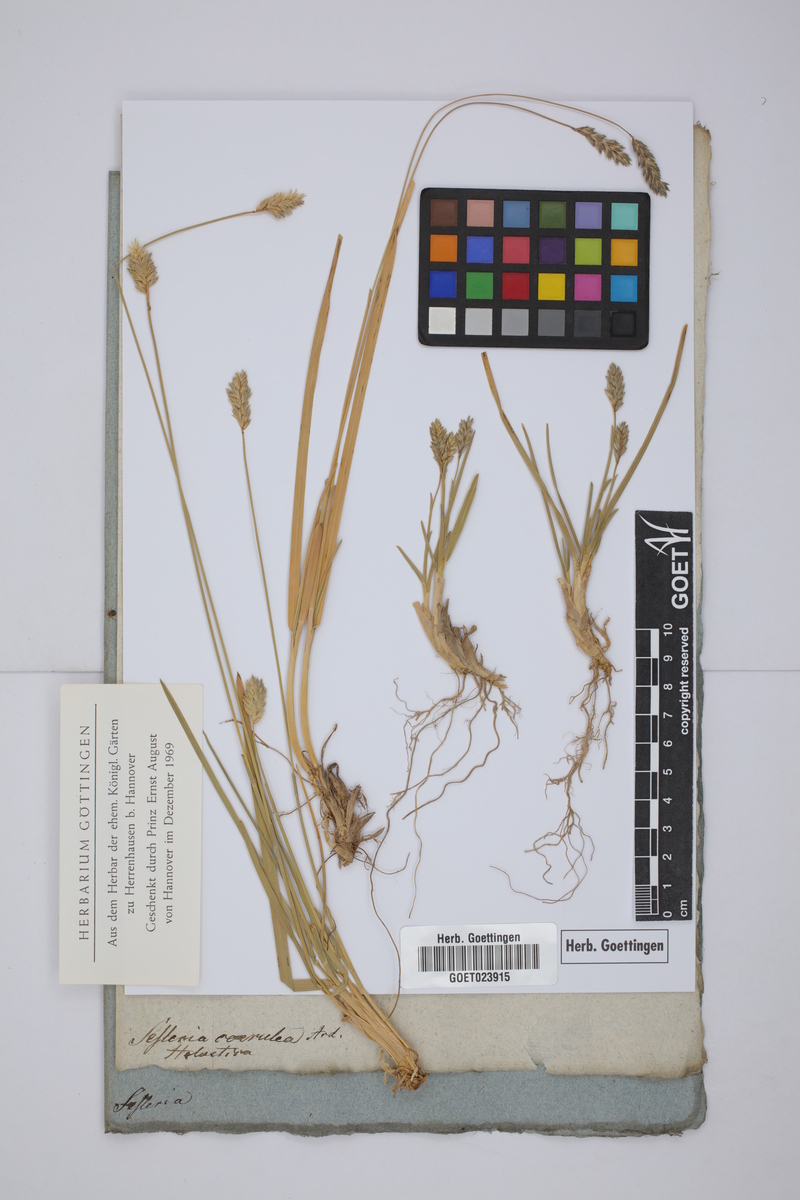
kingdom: Plantae
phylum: Tracheophyta
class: Liliopsida
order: Poales
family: Poaceae
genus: Sesleria
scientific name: Sesleria caerulea
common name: Blue moor-grass
